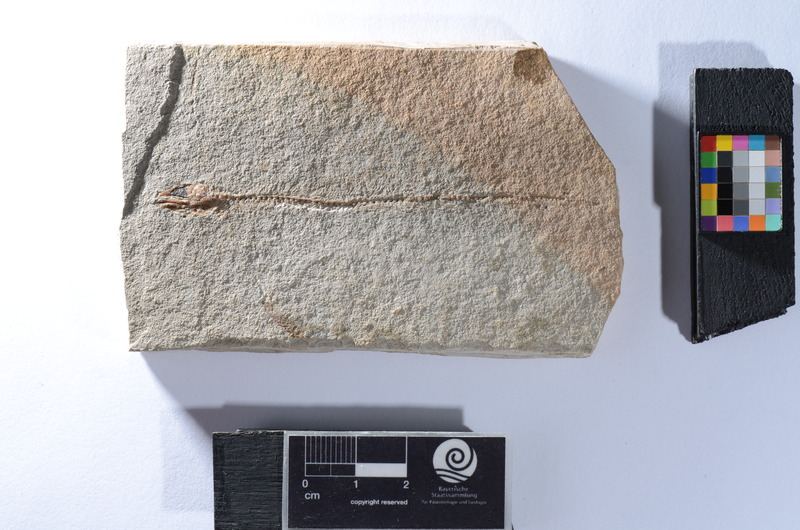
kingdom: Animalia
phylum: Chordata
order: Anguilliformes
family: Anguillidae
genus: Anguilla
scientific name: Anguilla brevicula
